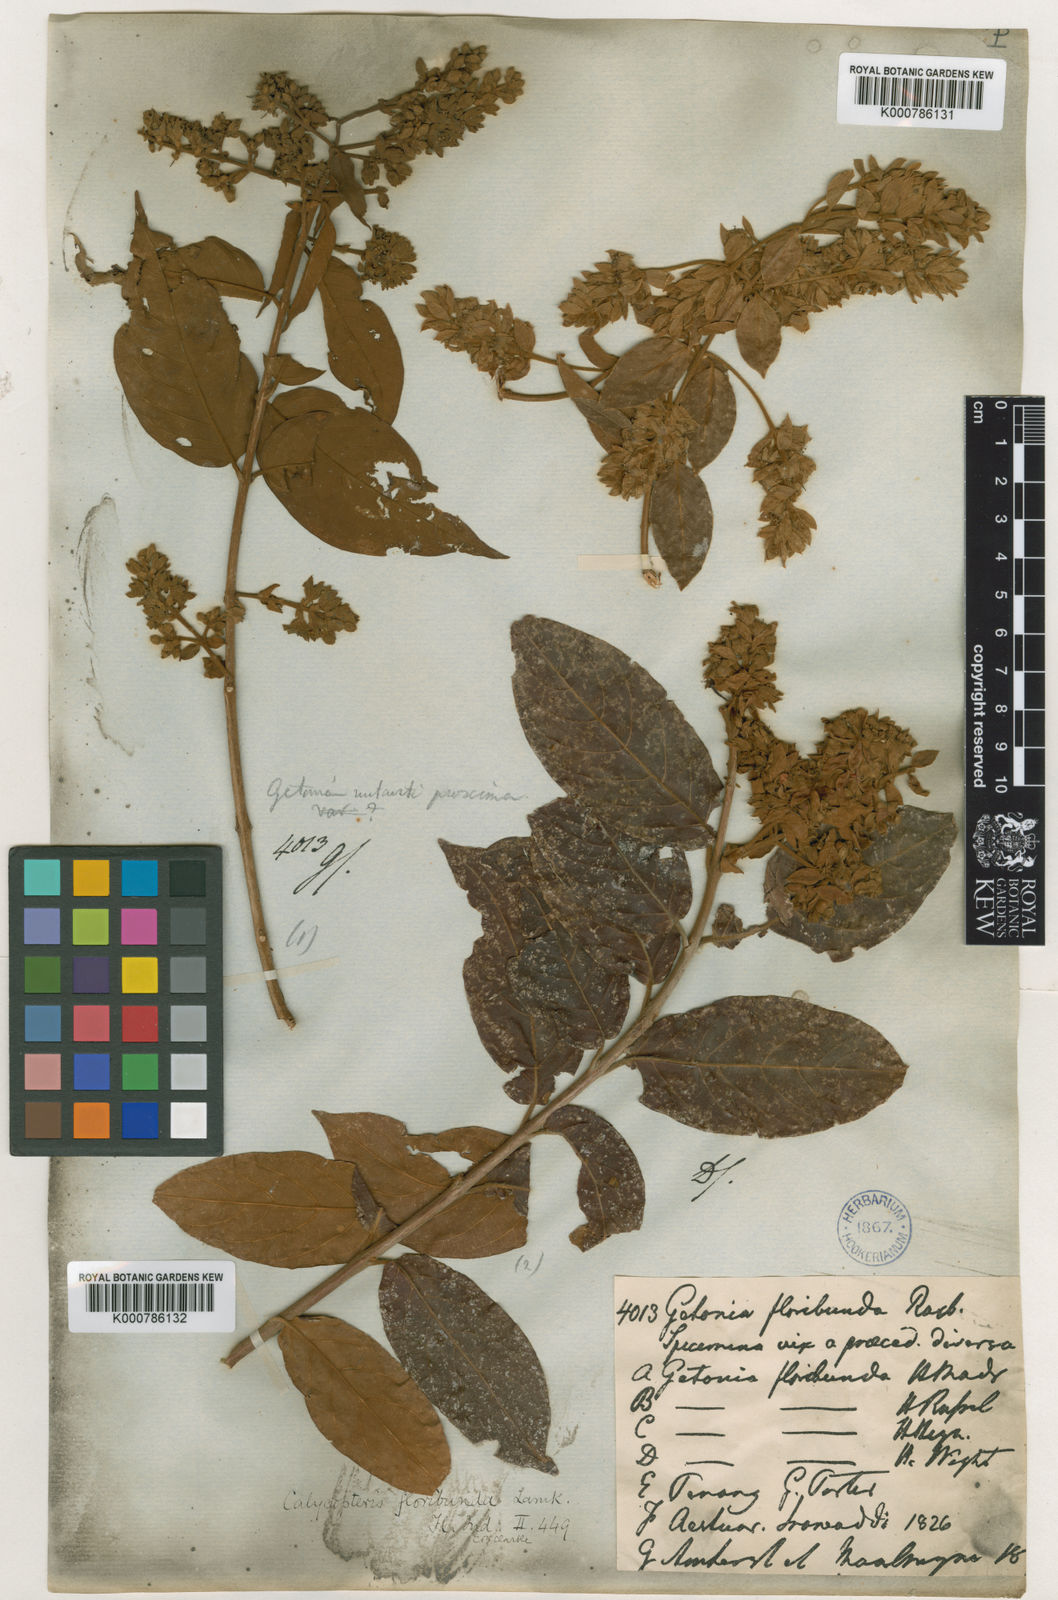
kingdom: Plantae
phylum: Tracheophyta
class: Magnoliopsida
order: Myrtales
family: Combretaceae
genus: Getonia
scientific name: Getonia floribunda
